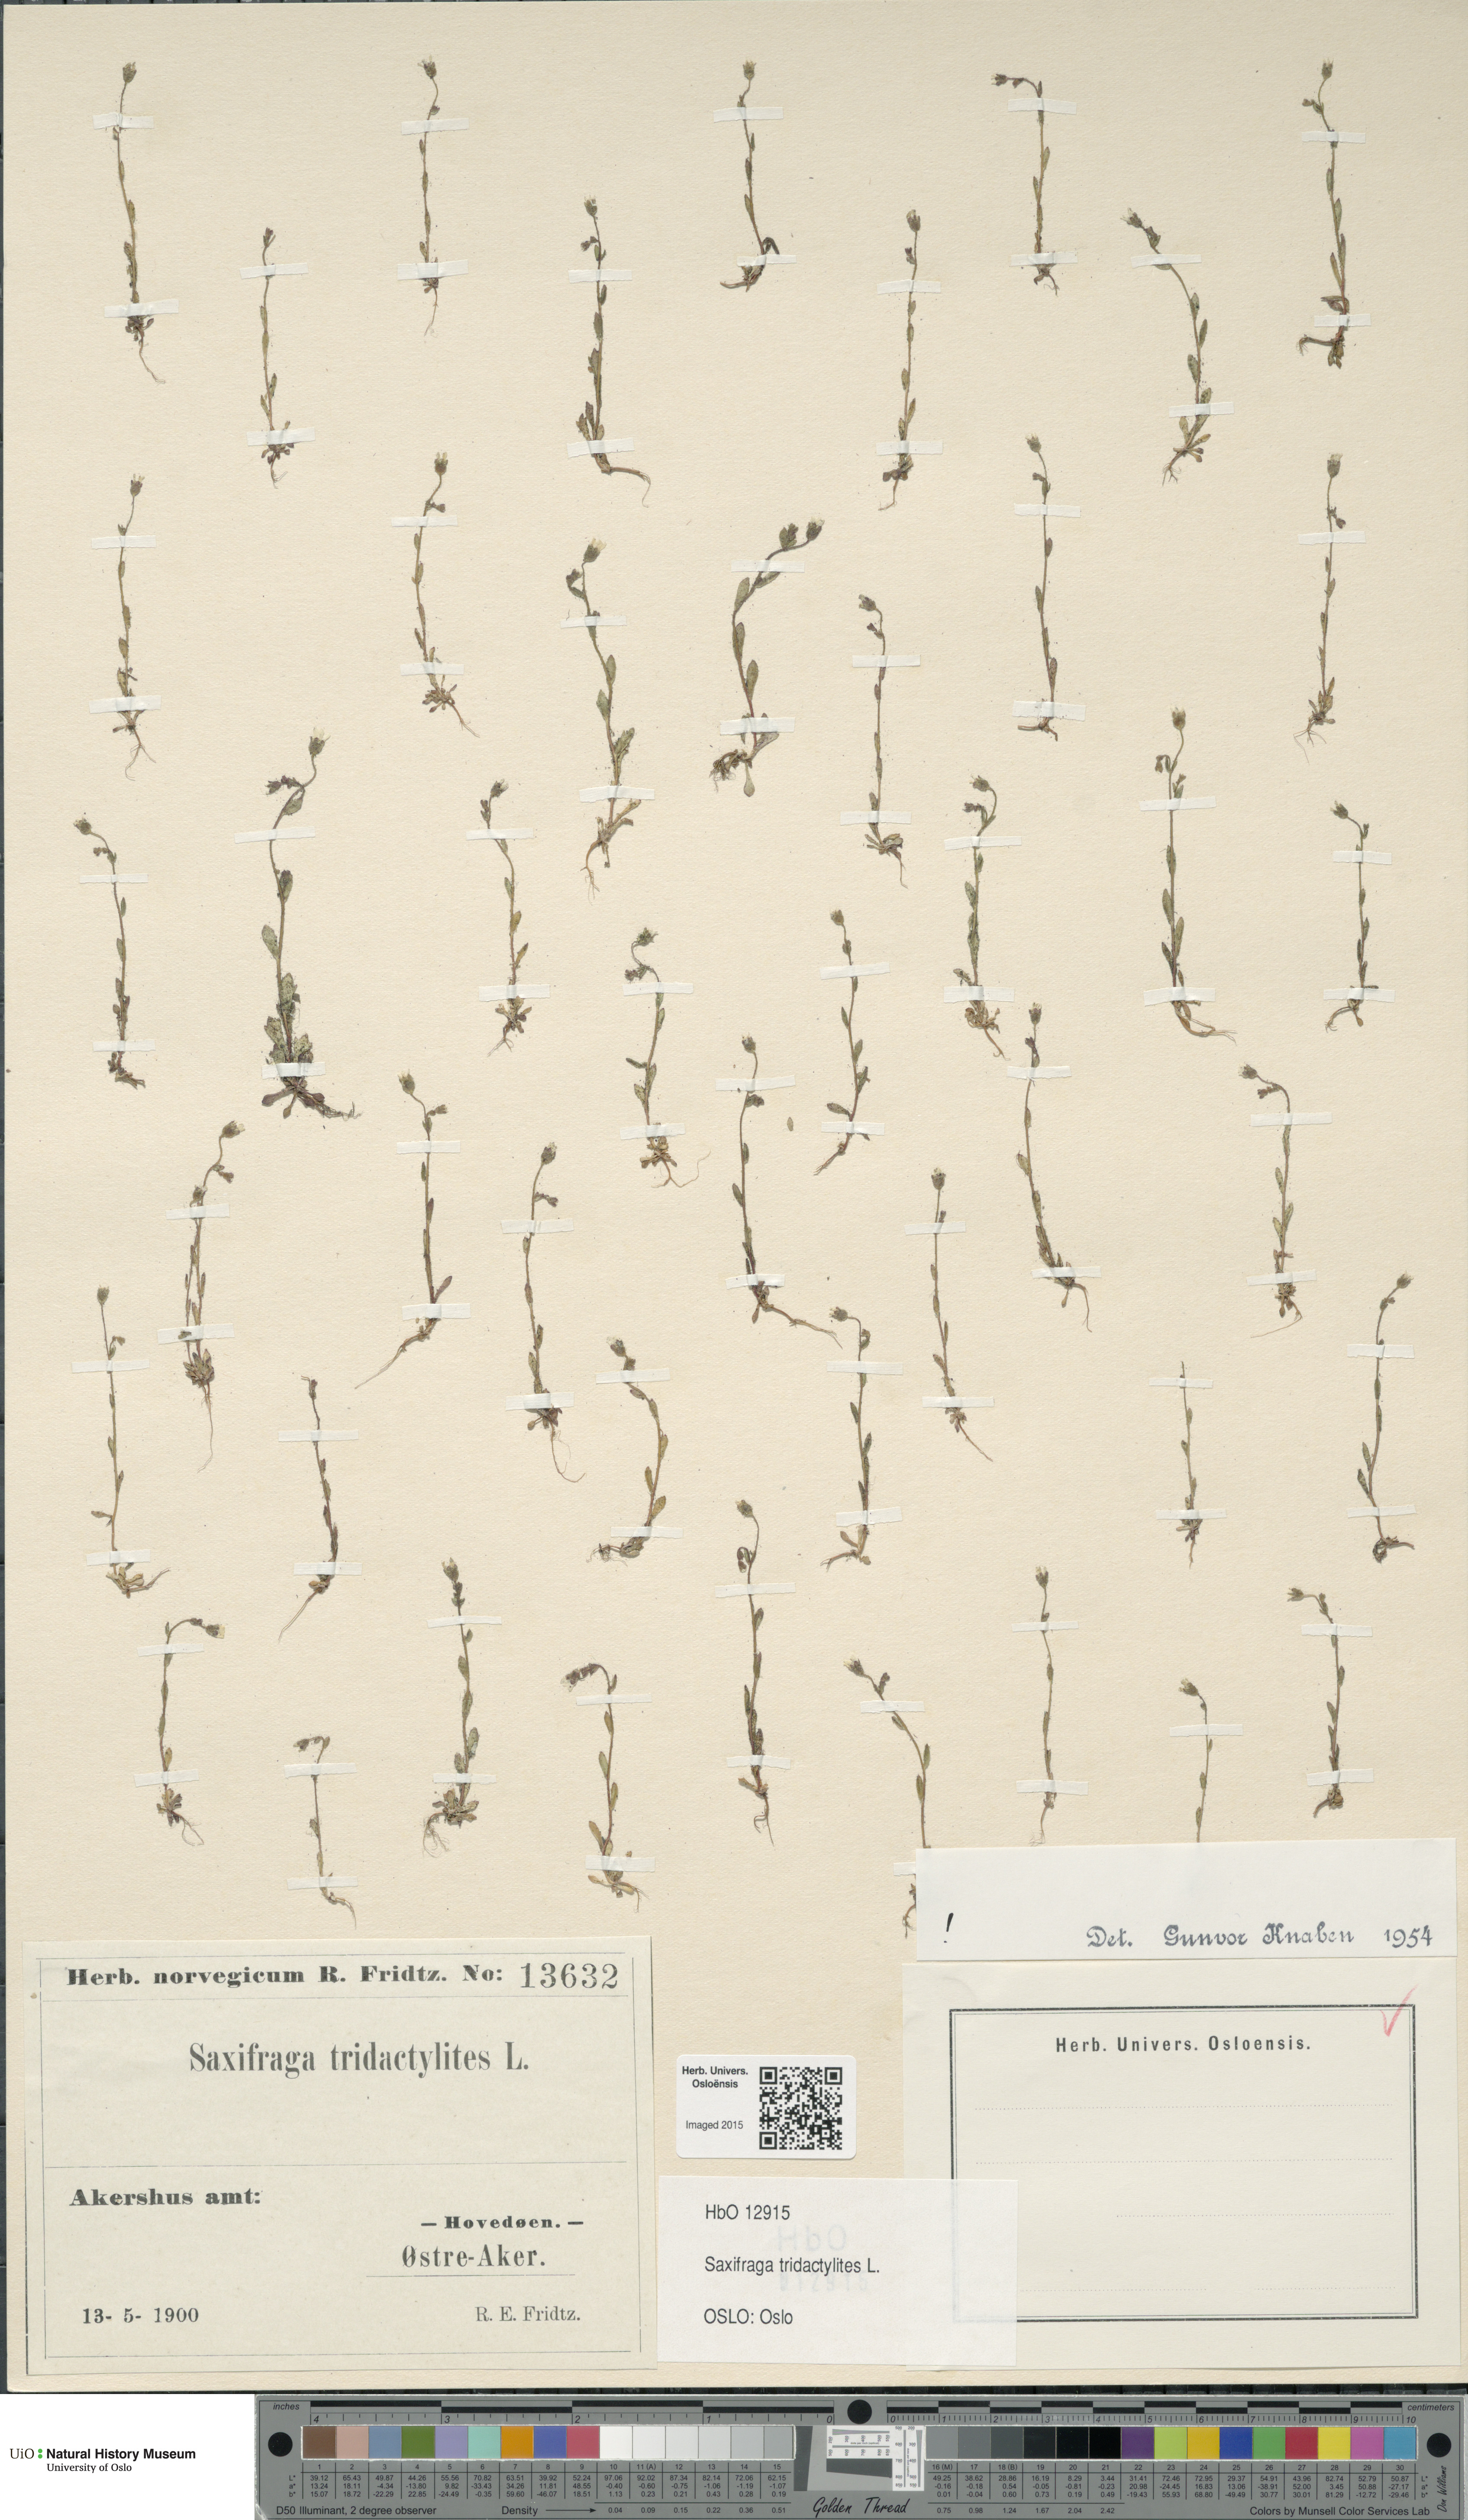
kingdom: Plantae
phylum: Tracheophyta
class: Magnoliopsida
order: Saxifragales
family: Saxifragaceae
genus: Saxifraga
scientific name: Saxifraga tridactylites
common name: Rue-leaved saxifrage
